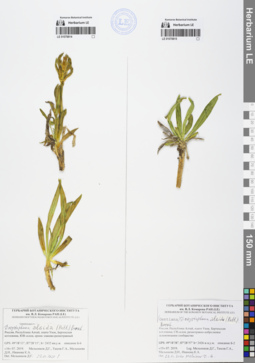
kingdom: Plantae
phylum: Tracheophyta
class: Magnoliopsida
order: Gentianales
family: Gentianaceae
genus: Gentiana
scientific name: Gentiana algida
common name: Arctic gentian
